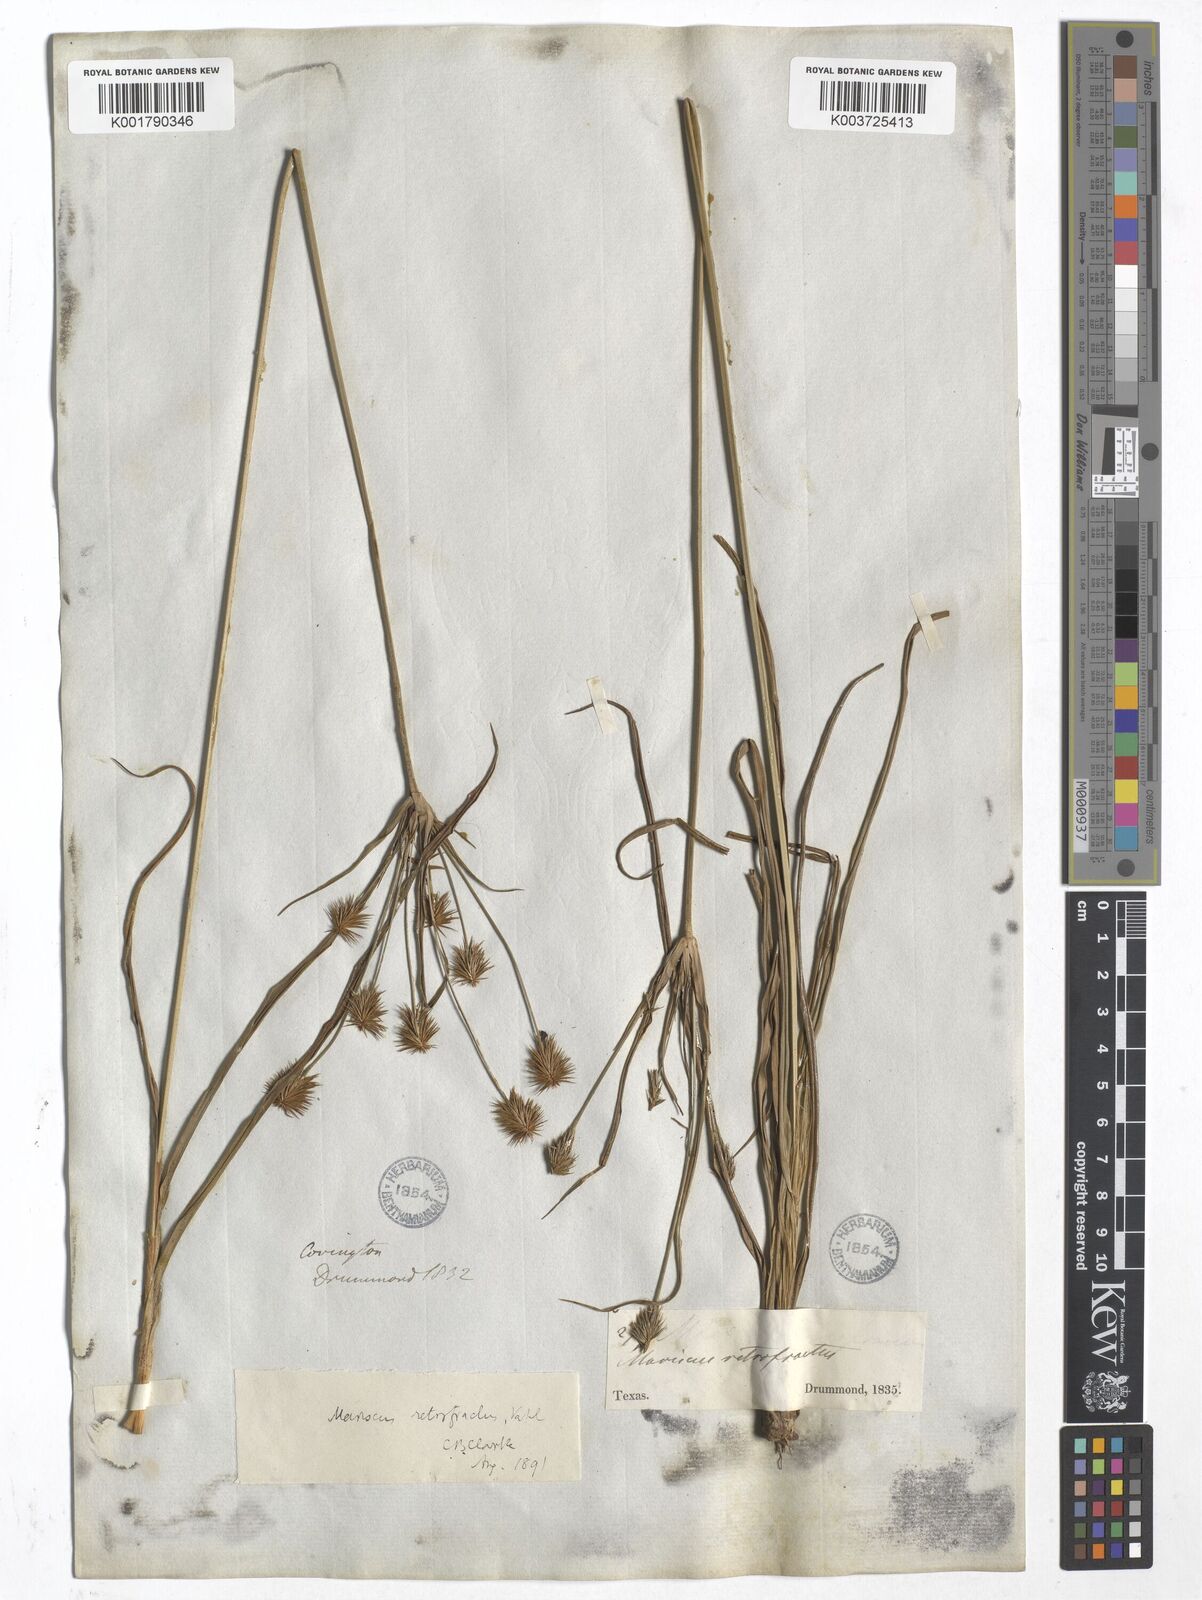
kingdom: Plantae
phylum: Tracheophyta
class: Liliopsida
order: Poales
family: Cyperaceae
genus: Cyperus
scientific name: Cyperus retrofractus
